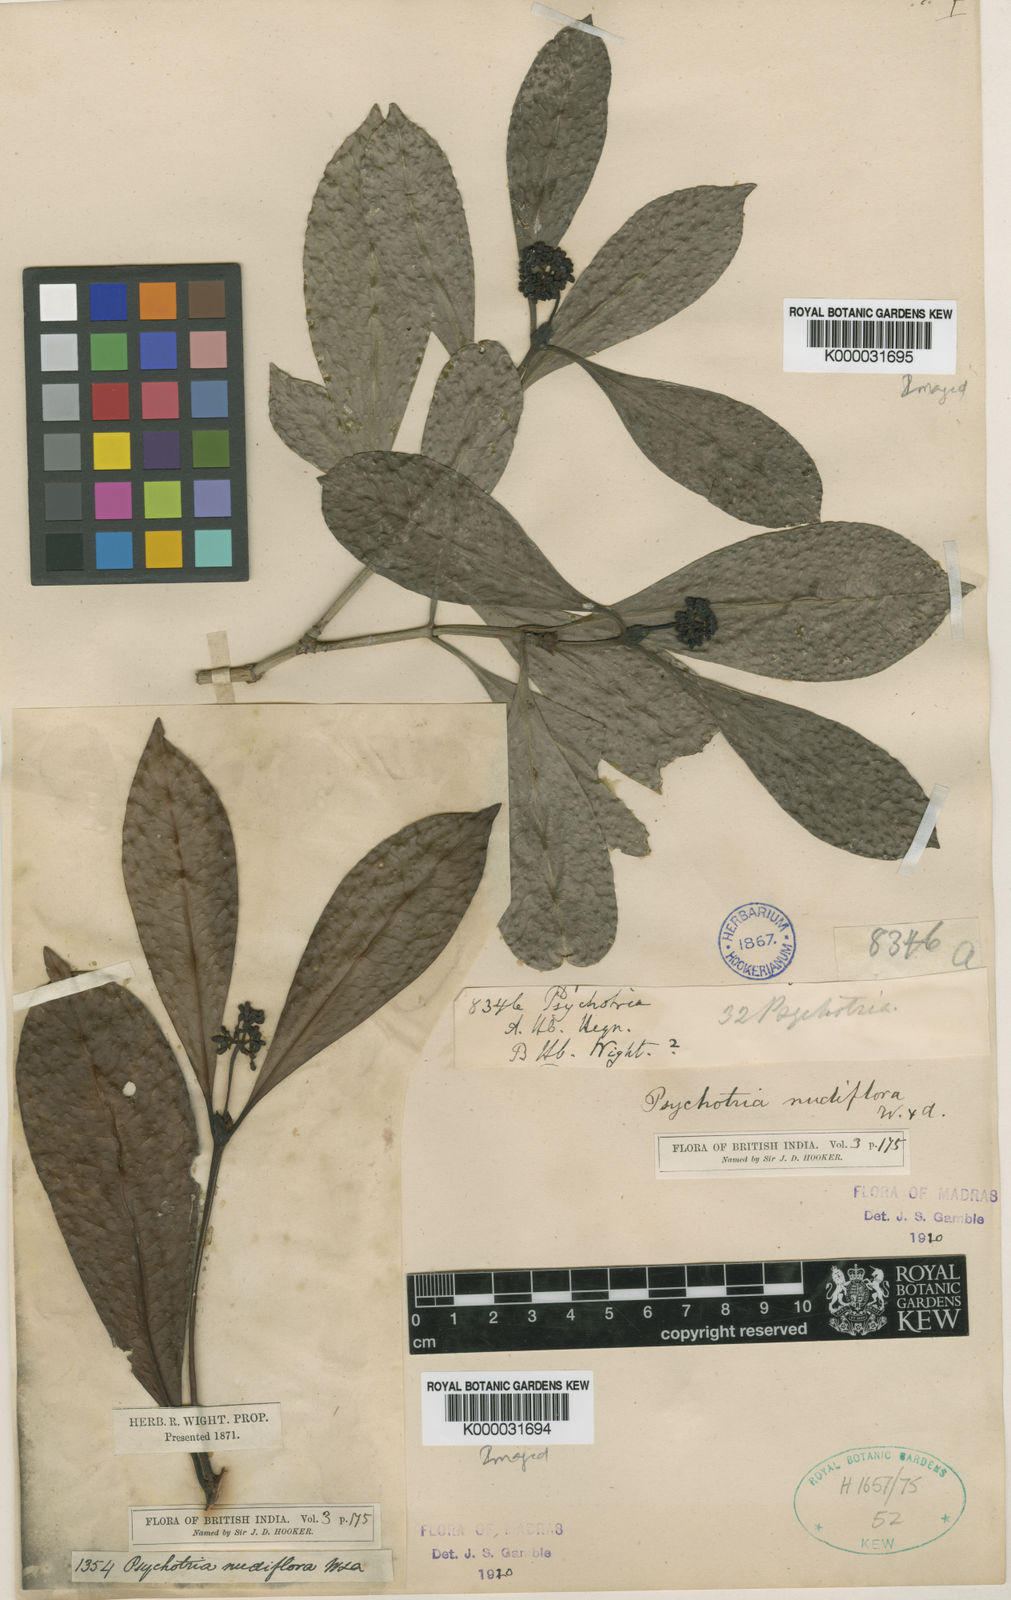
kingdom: Plantae
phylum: Tracheophyta
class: Magnoliopsida
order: Gentianales
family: Rubiaceae
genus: Psychotria
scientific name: Psychotria nudiflora
